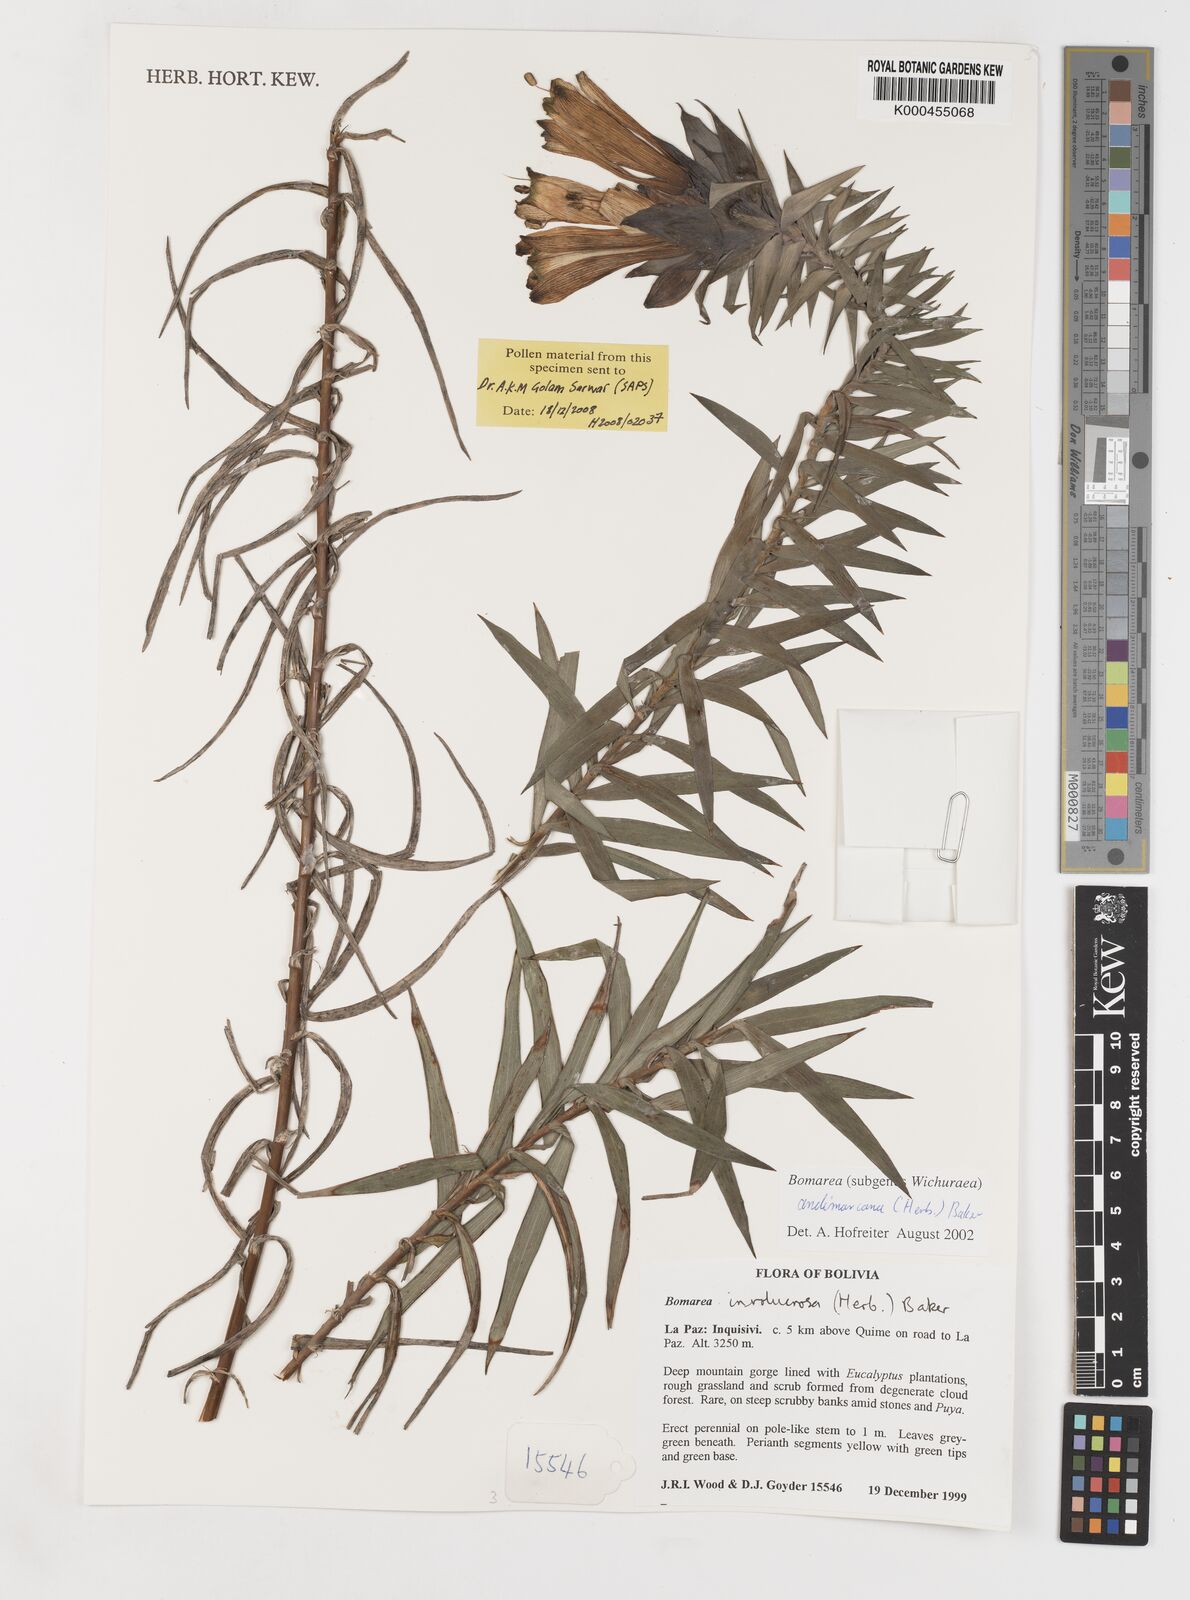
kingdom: Plantae
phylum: Tracheophyta
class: Liliopsida
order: Liliales
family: Alstroemeriaceae
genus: Bomarea
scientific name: Bomarea andimarcana
